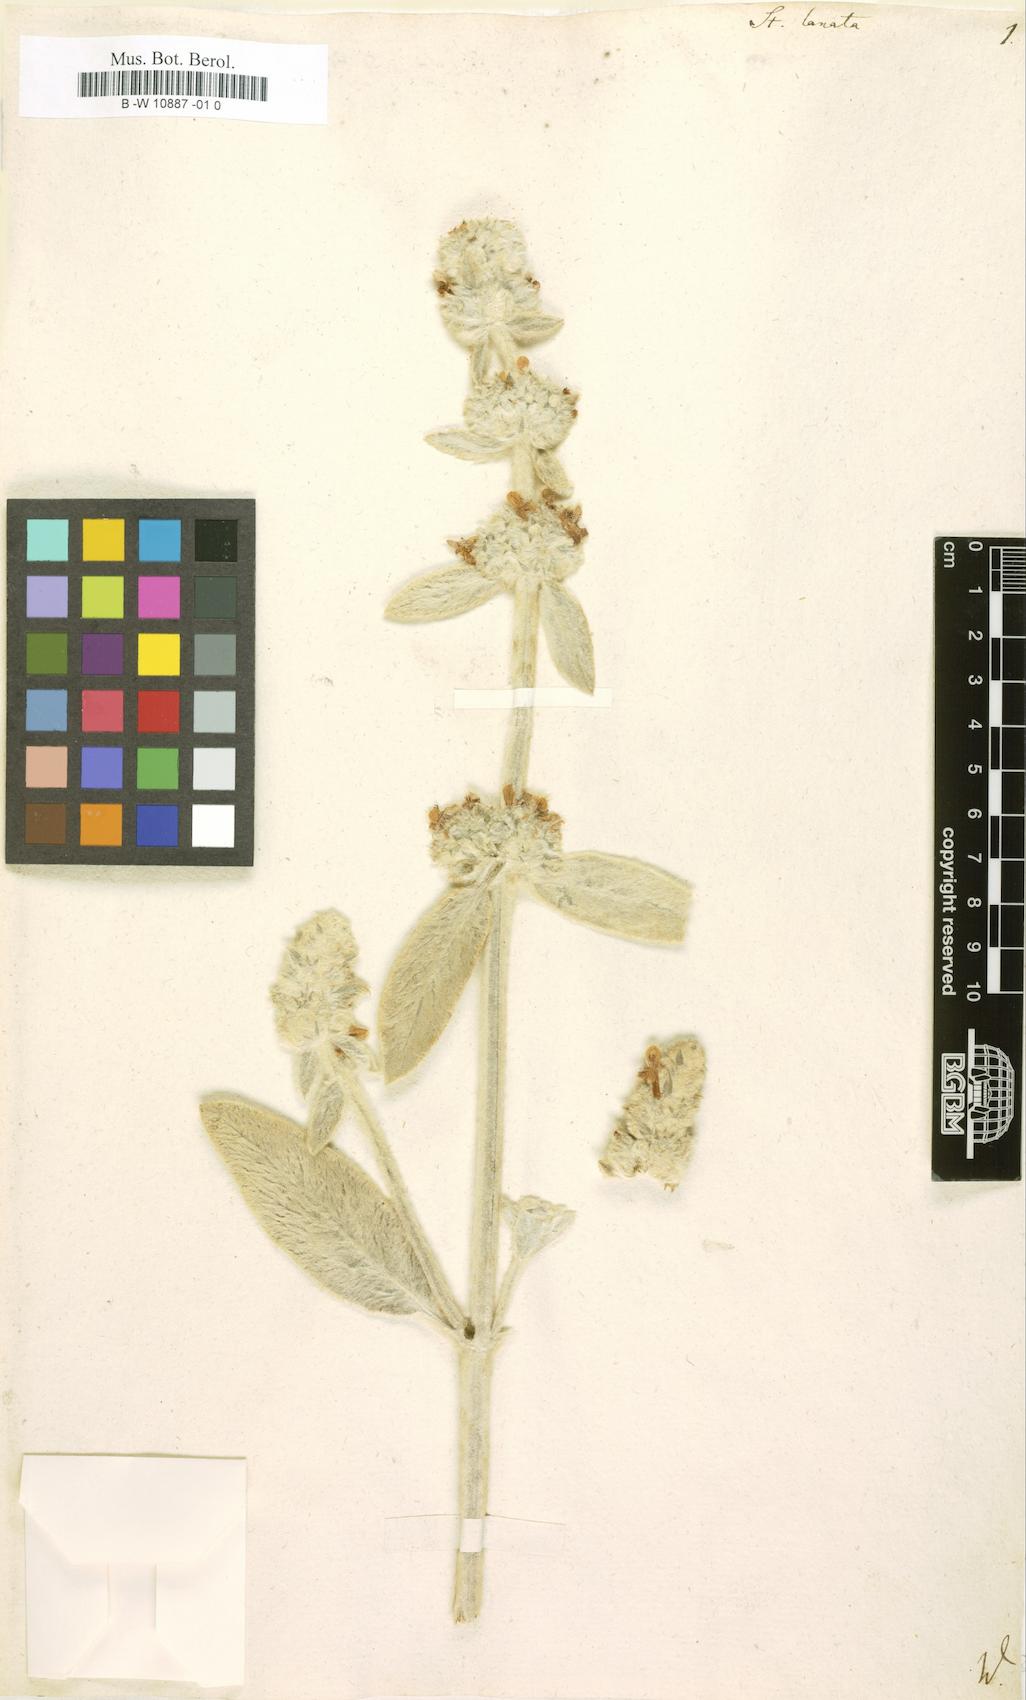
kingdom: Plantae
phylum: Tracheophyta
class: Magnoliopsida
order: Lamiales
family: Lamiaceae
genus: Stachys
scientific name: Stachys
